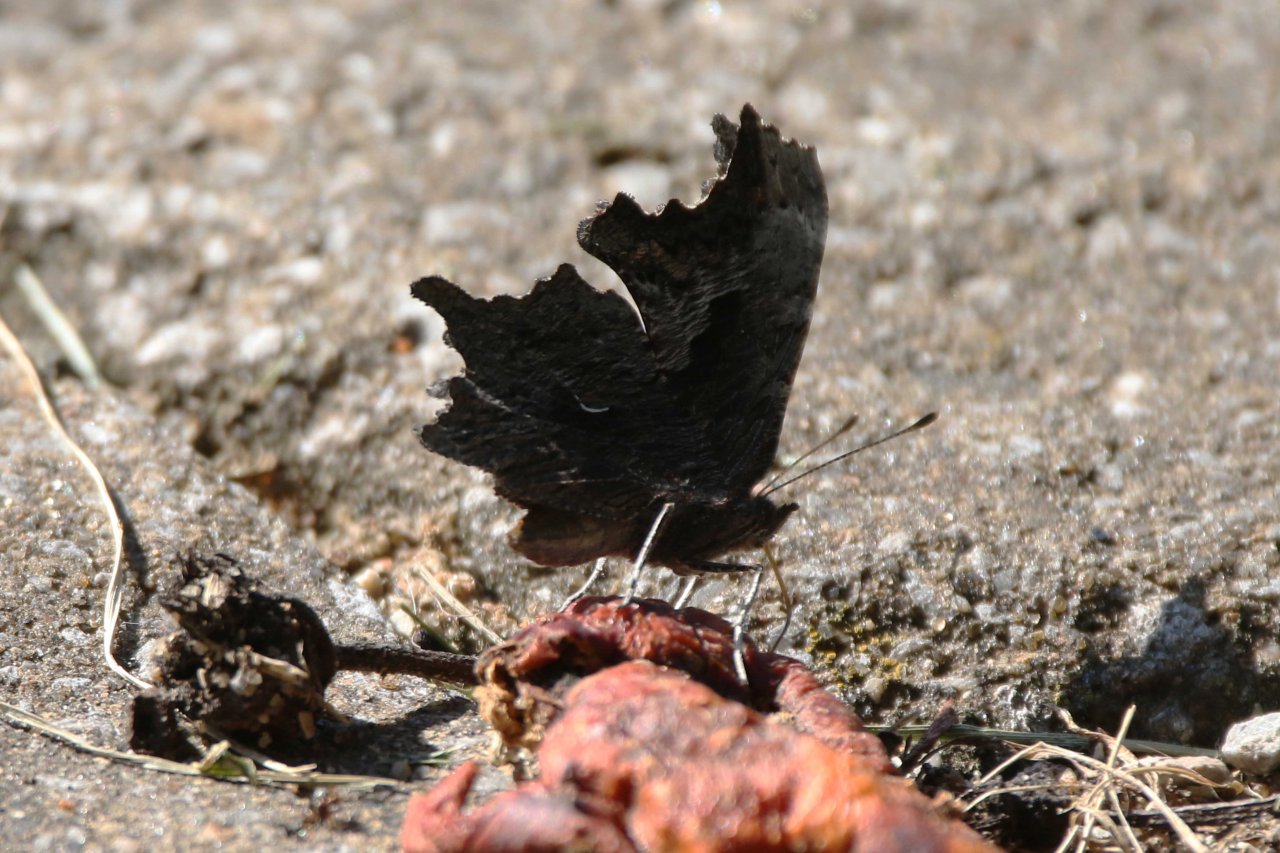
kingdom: Animalia
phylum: Arthropoda
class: Insecta
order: Lepidoptera
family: Nymphalidae
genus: Polygonia
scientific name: Polygonia progne
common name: Gray Comma
